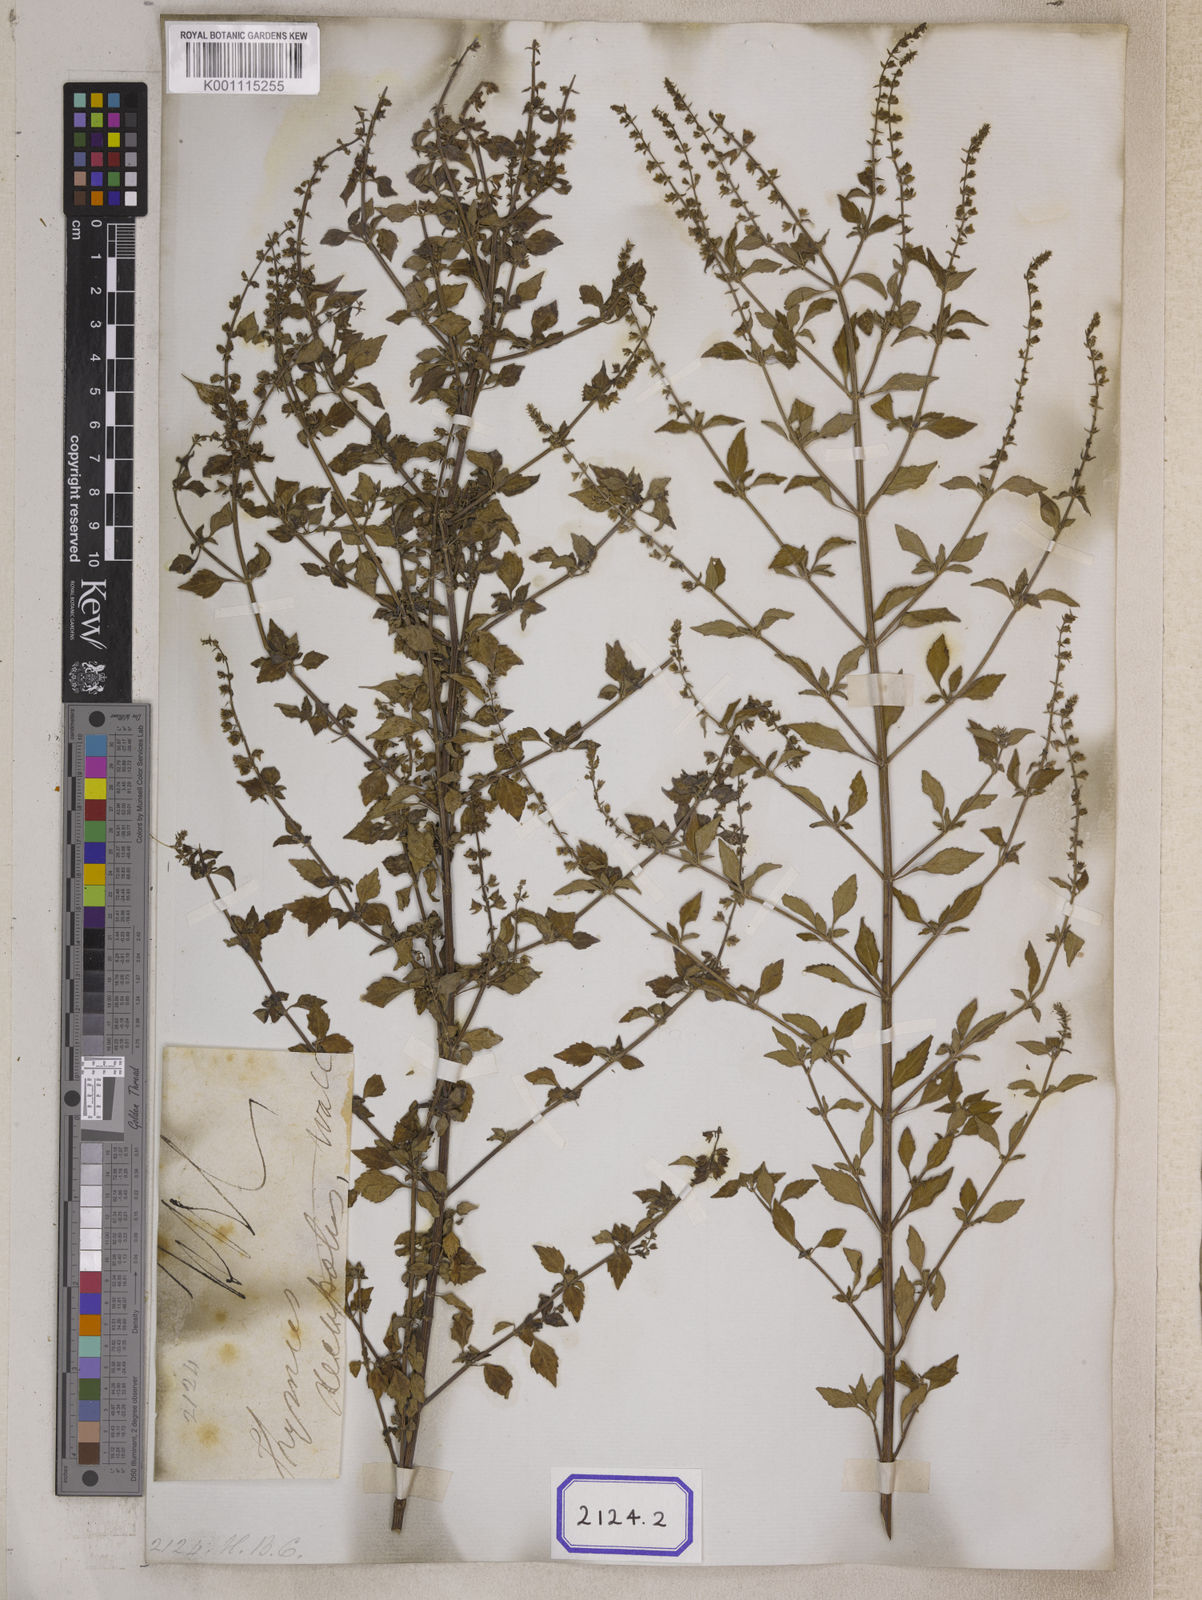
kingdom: Plantae
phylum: Tracheophyta
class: Magnoliopsida
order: Lamiales
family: Lamiaceae
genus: Mosla
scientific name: Mosla dianthera
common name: Miniature beefsteakplant
